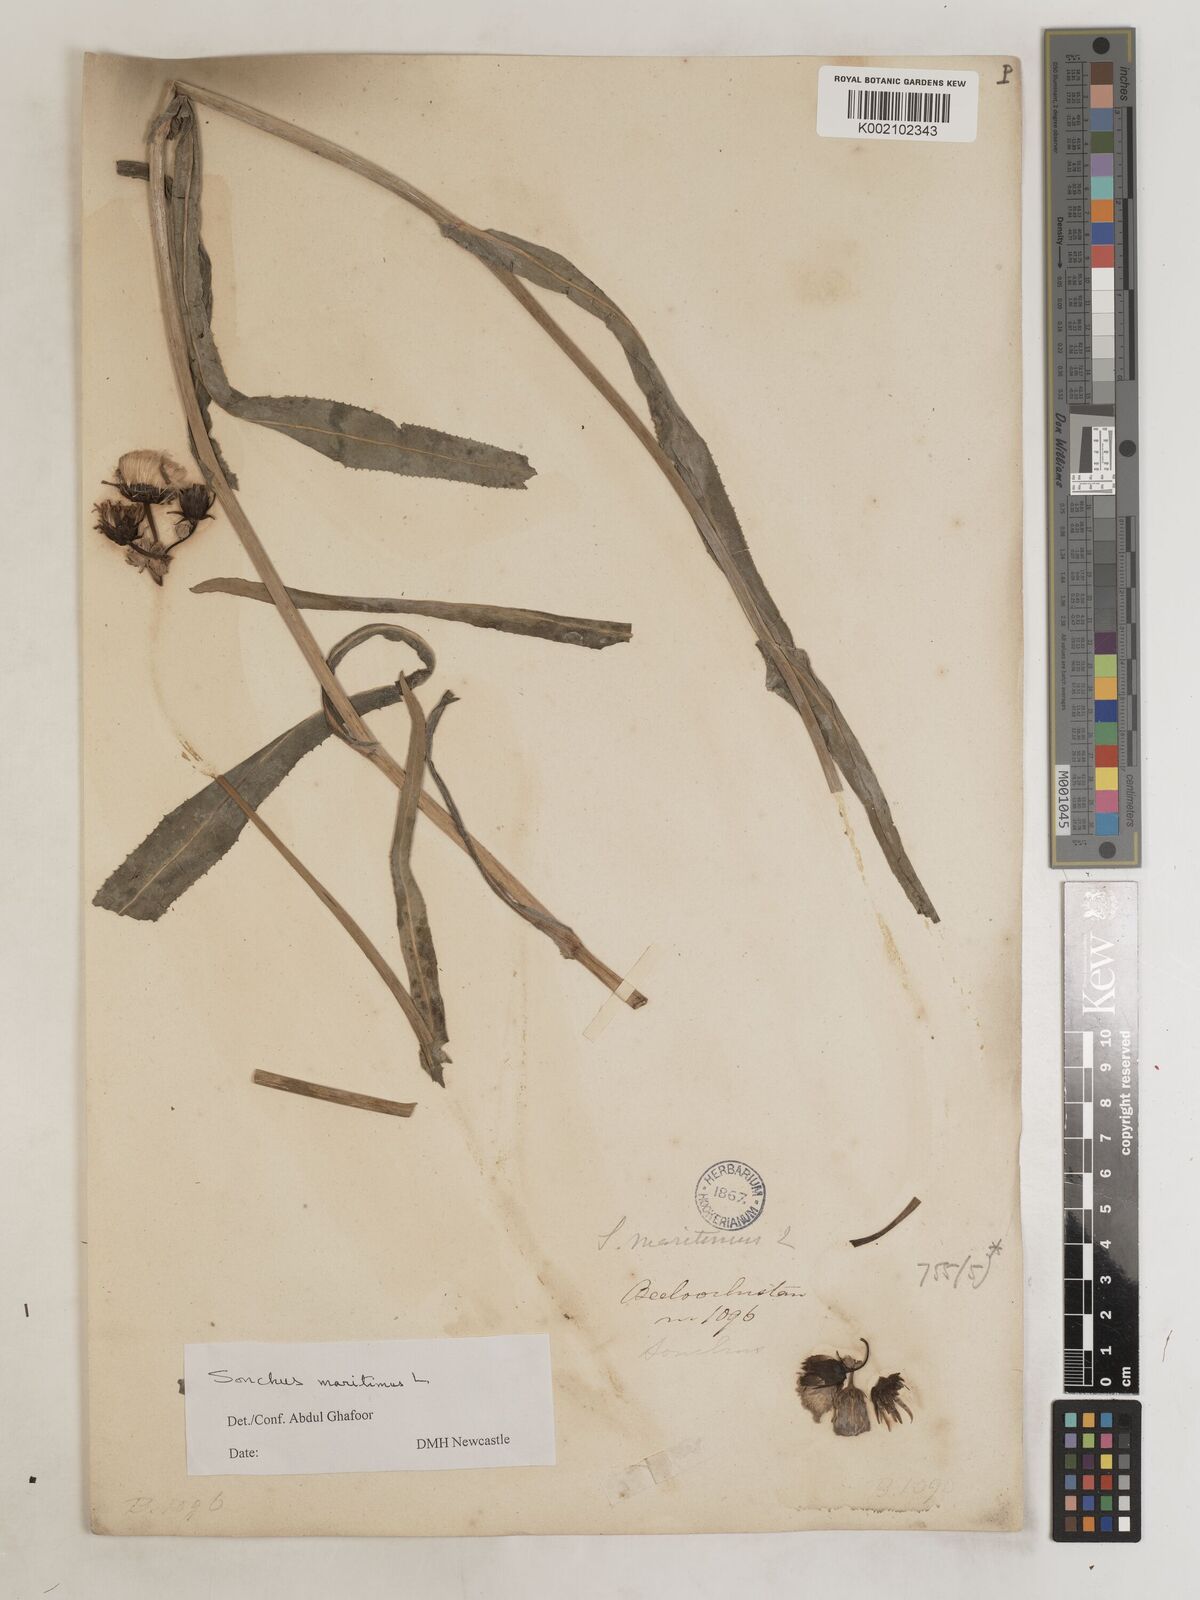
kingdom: Plantae
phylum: Tracheophyta
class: Magnoliopsida
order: Asterales
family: Asteraceae
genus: Sonchus
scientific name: Sonchus maritimus
